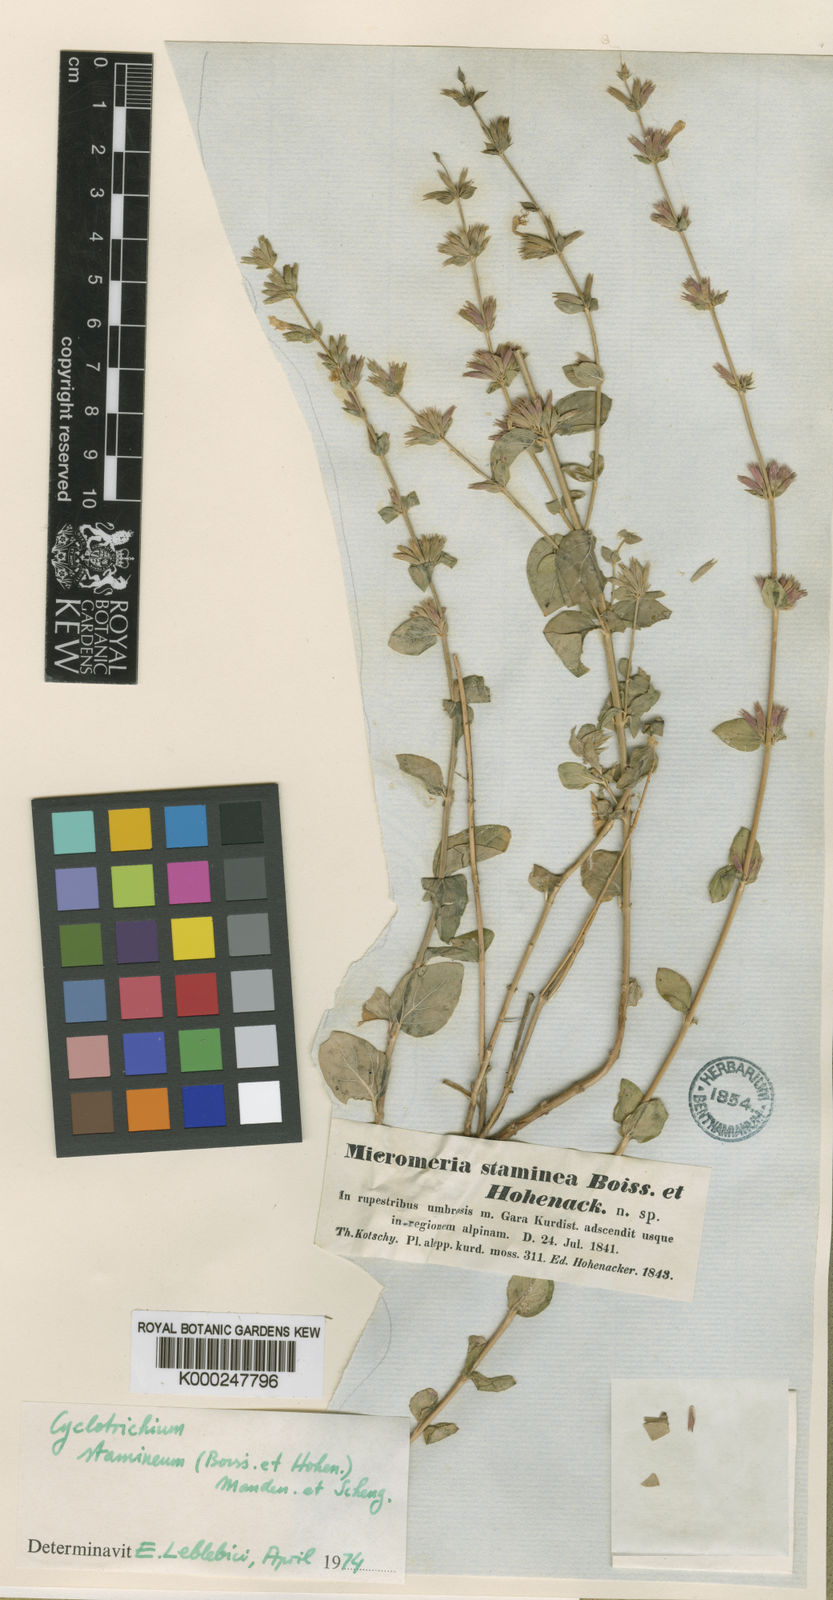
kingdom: Plantae
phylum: Tracheophyta
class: Magnoliopsida
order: Lamiales
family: Lamiaceae
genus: Cyclotrichium
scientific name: Cyclotrichium stamineum
